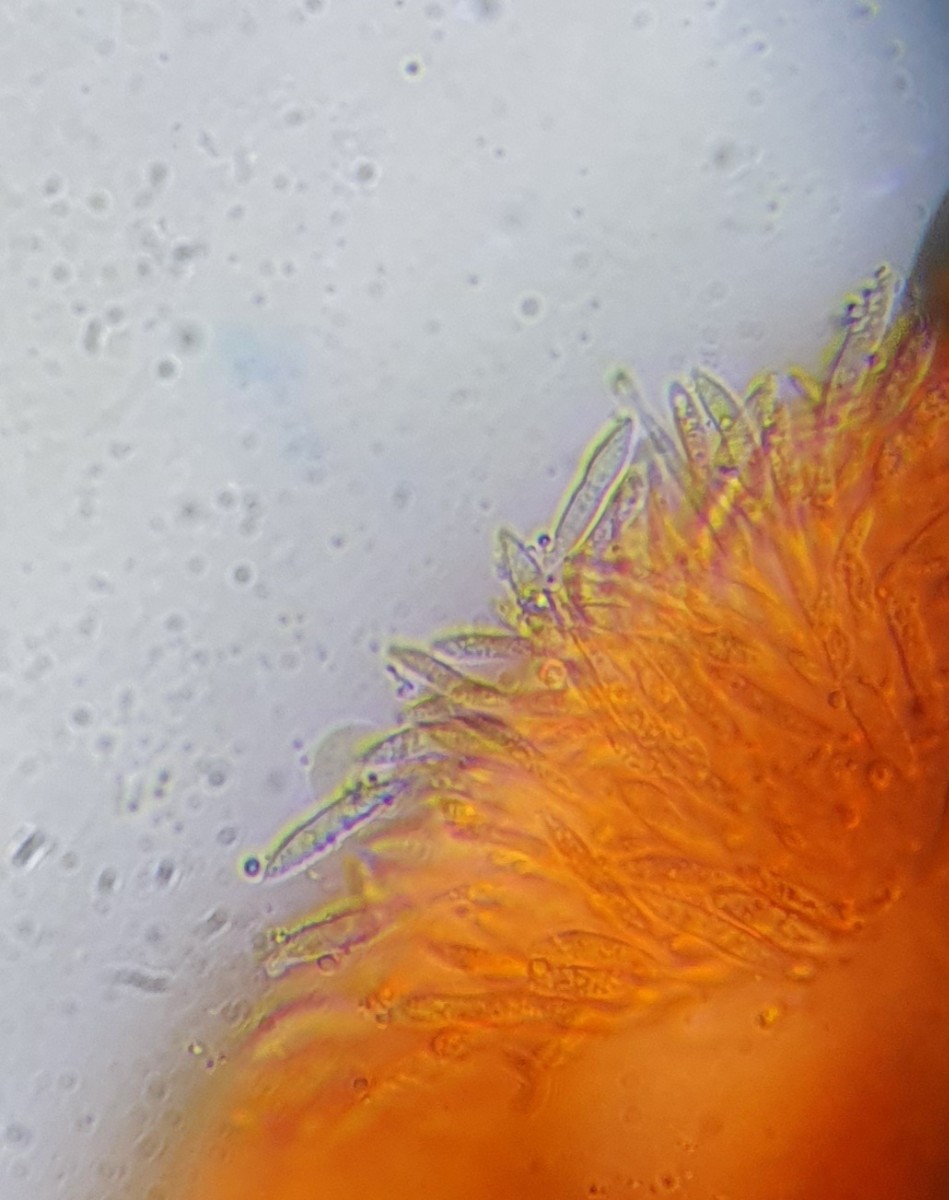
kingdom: Fungi
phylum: Ascomycota
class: Sordariomycetes
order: Diaporthales
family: Gnomoniaceae
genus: Sirococcus
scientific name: Sirococcus conigenus
